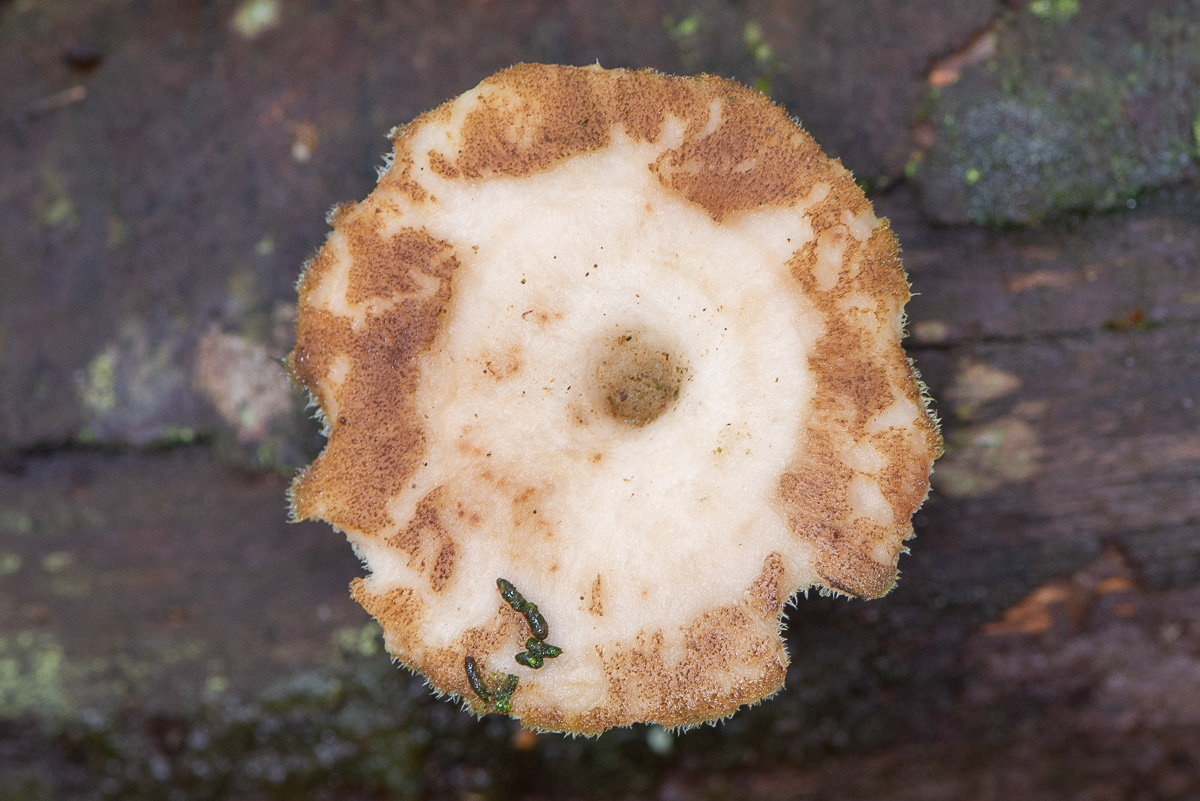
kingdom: Fungi
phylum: Basidiomycota
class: Agaricomycetes
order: Polyporales
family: Polyporaceae
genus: Lentinus
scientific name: Lentinus brumalis
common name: vinter-stilkporesvamp
